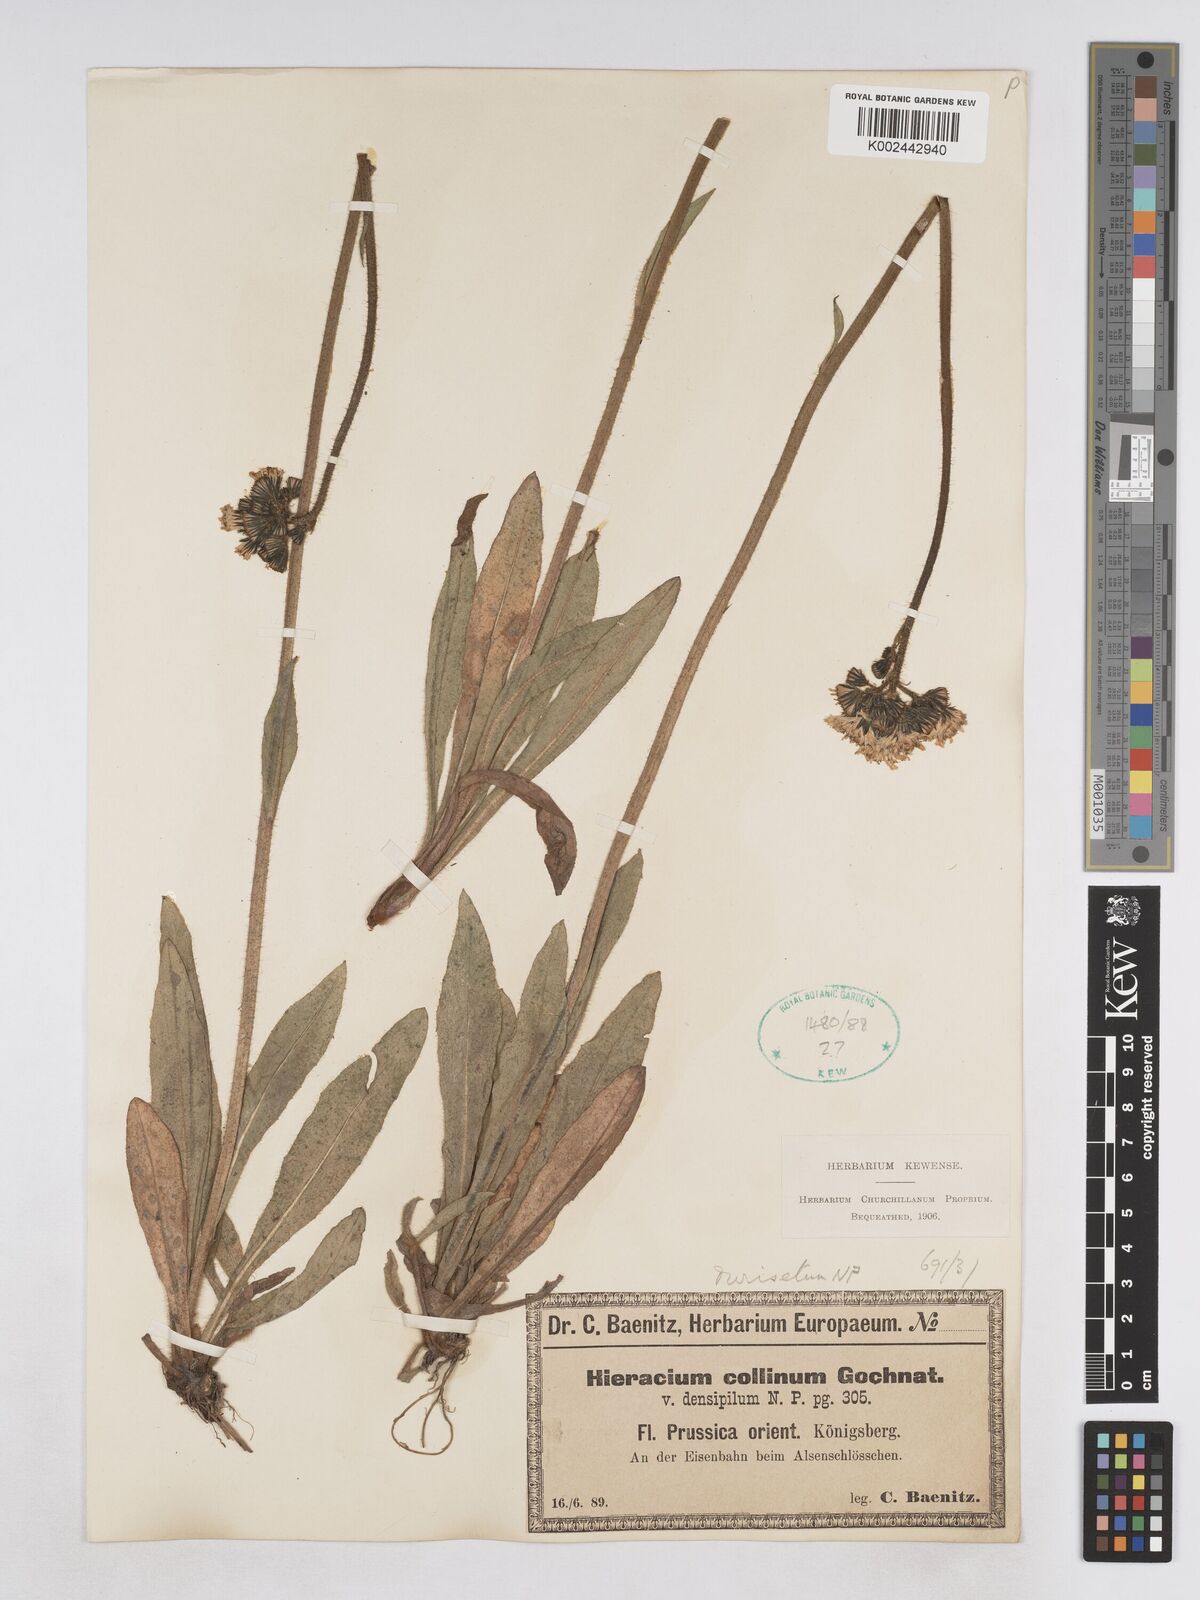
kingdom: Plantae
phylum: Tracheophyta
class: Magnoliopsida
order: Asterales
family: Asteraceae
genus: Pilosella
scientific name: Pilosella cymosiformis
